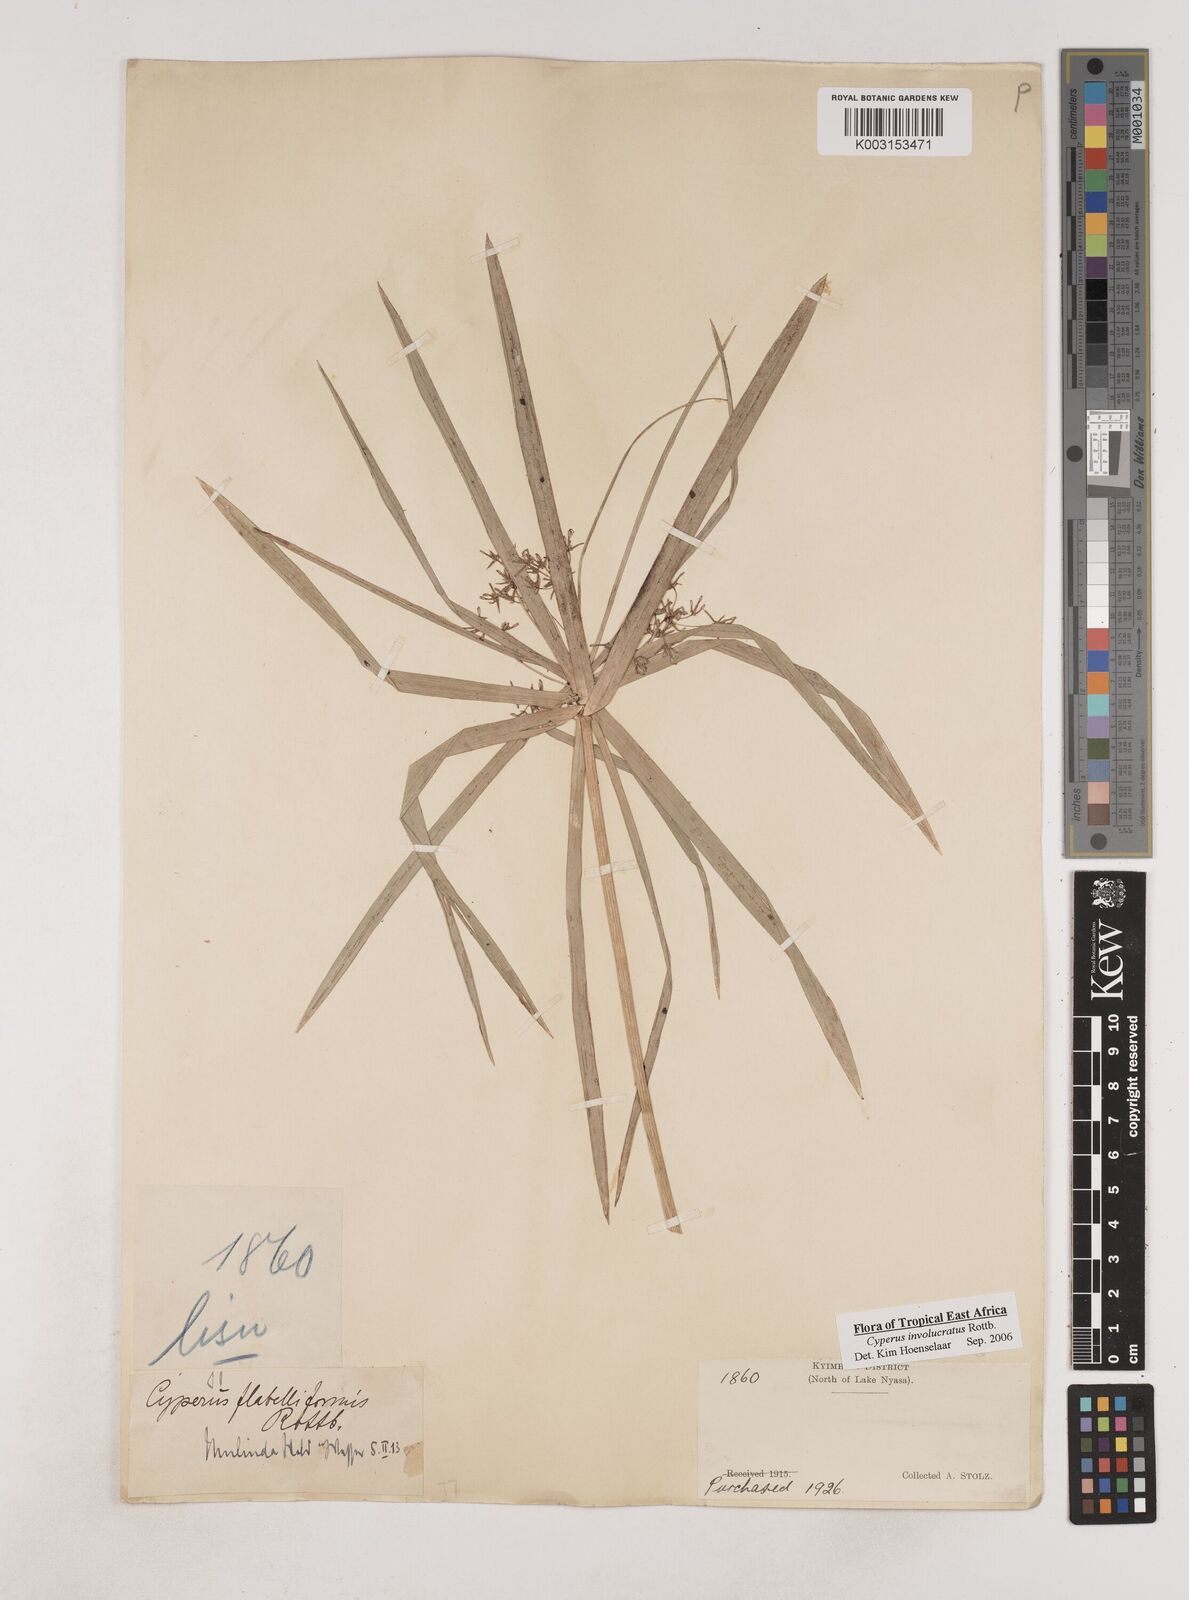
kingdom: Plantae
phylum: Tracheophyta
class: Liliopsida
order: Poales
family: Cyperaceae
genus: Cyperus
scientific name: Cyperus alternifolius
